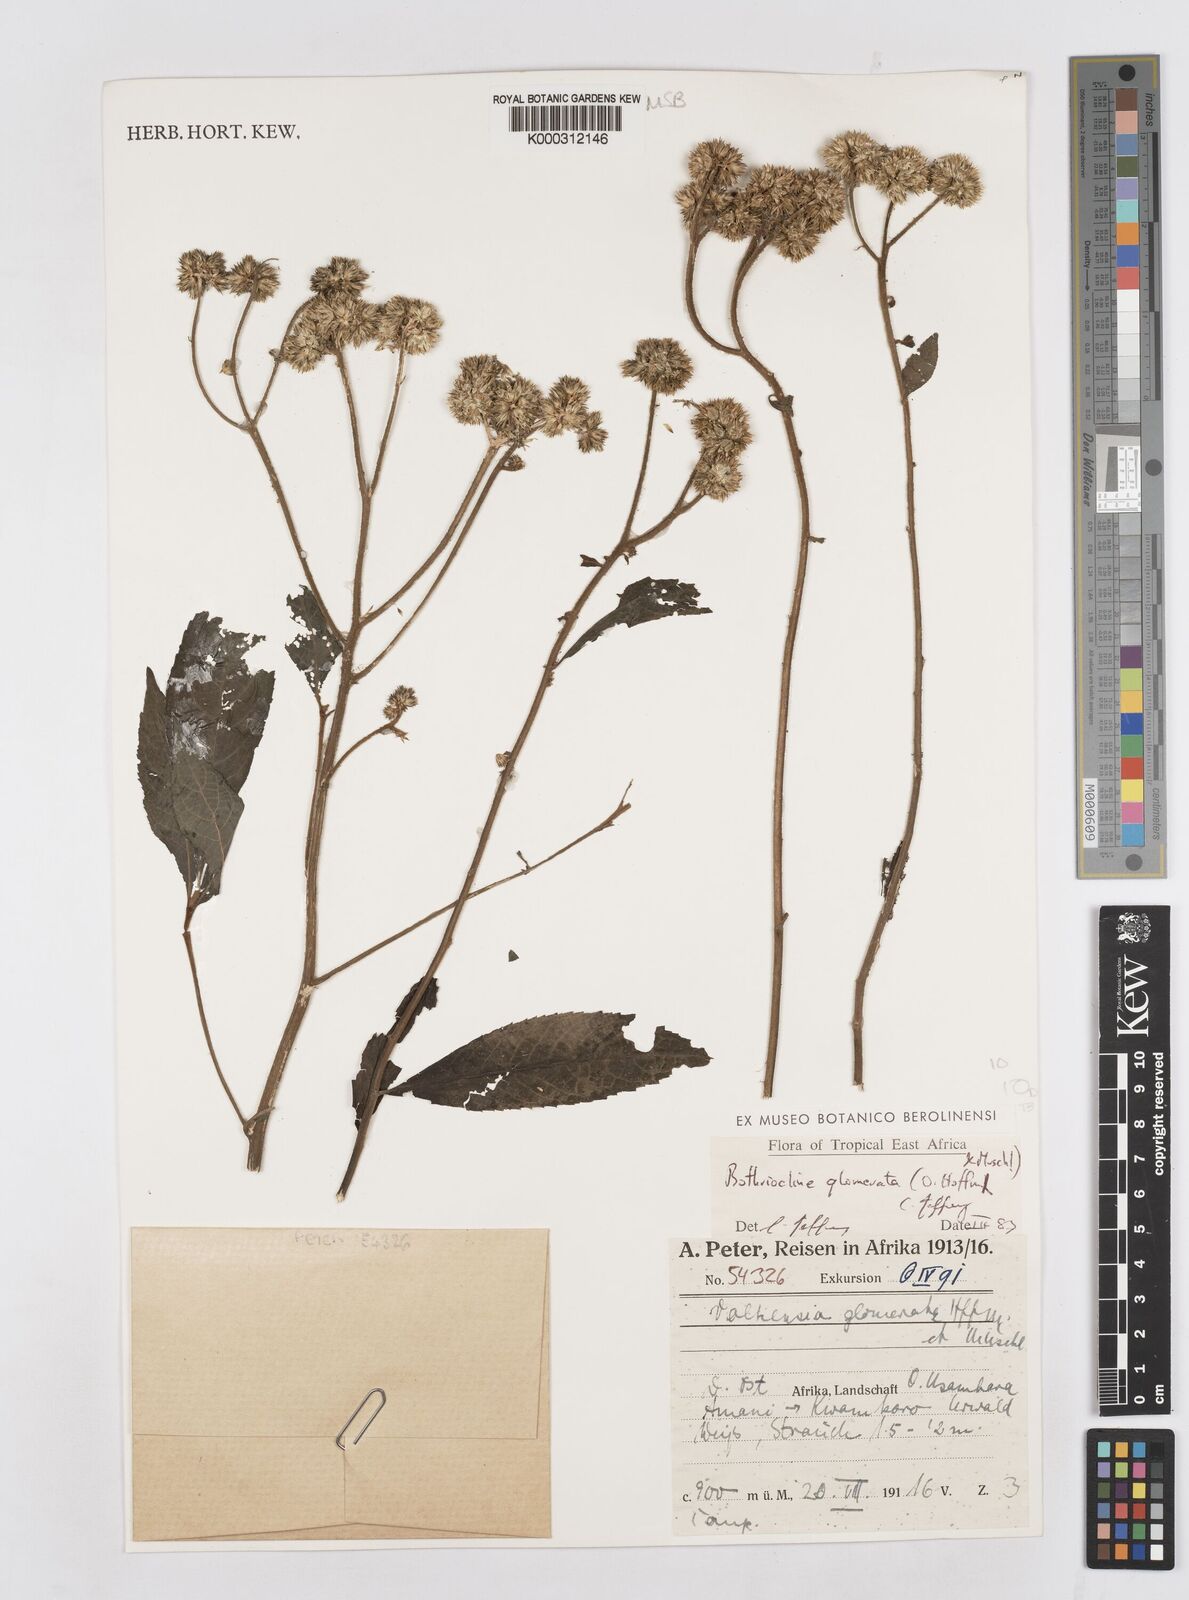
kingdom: Plantae
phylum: Tracheophyta
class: Magnoliopsida
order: Asterales
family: Asteraceae
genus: Bothriocline
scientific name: Bothriocline glomerata
